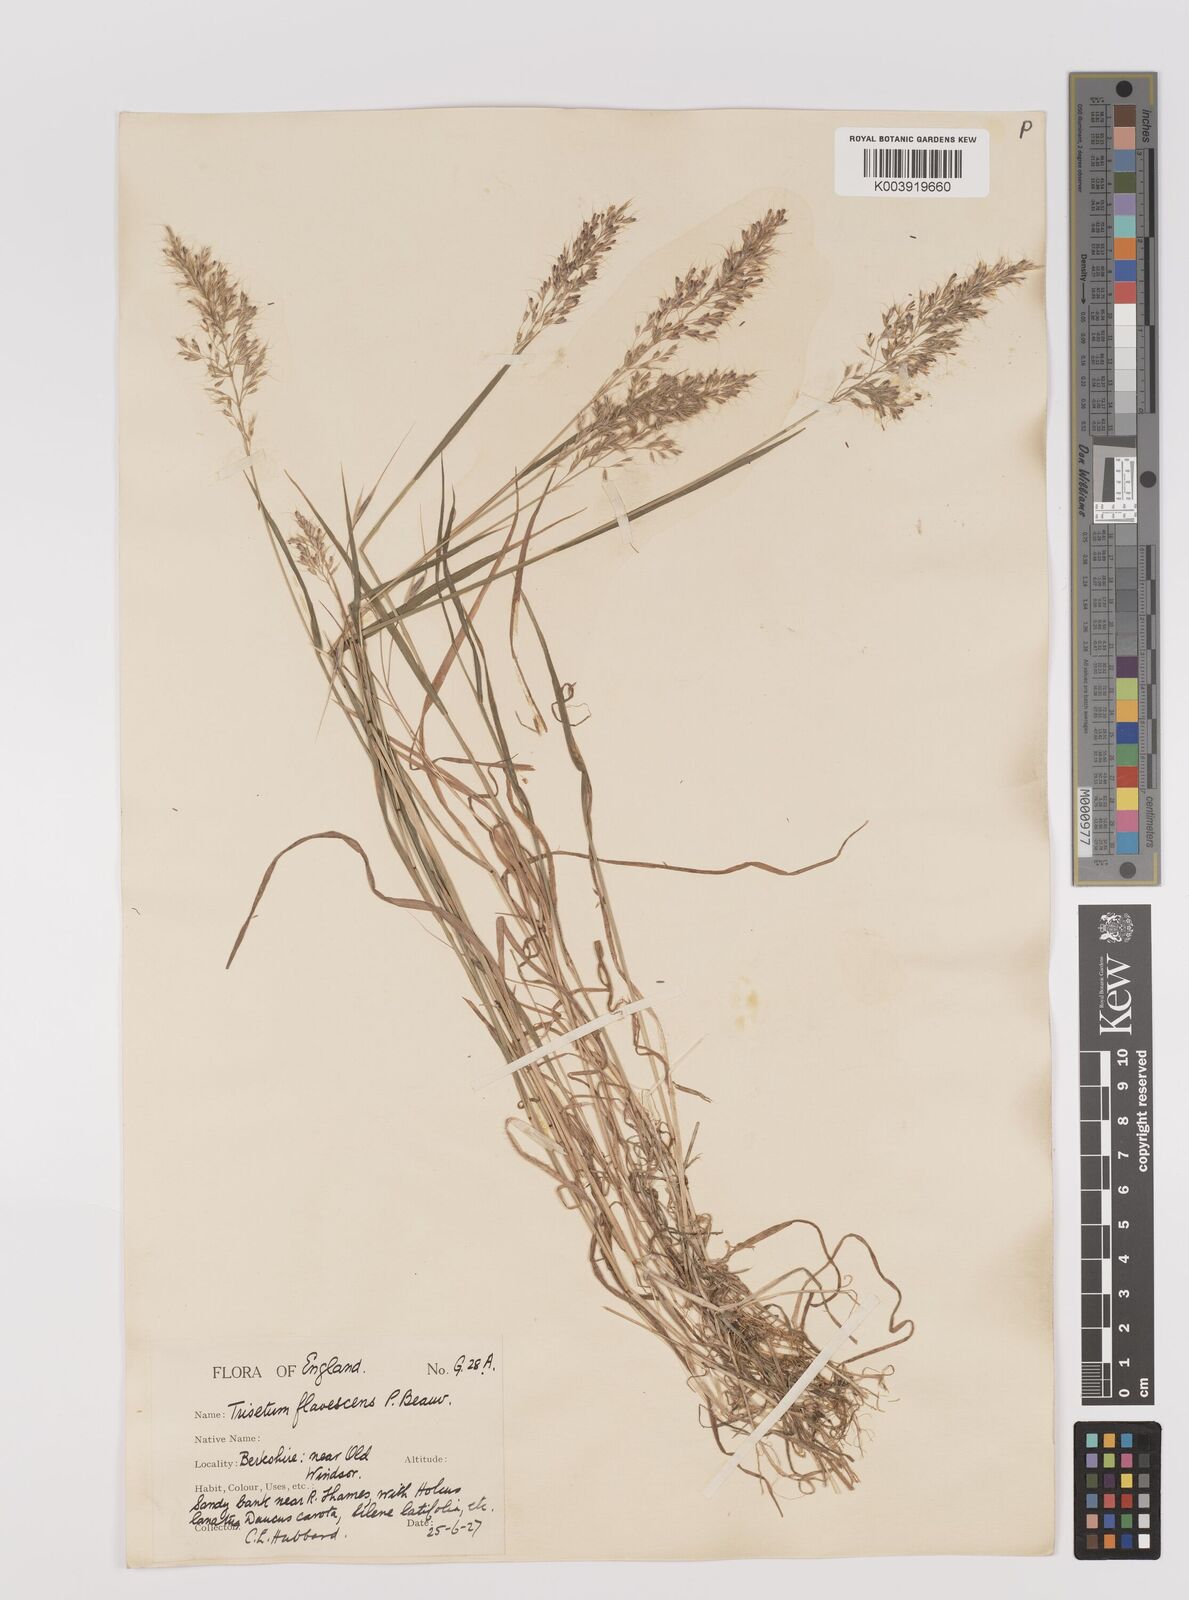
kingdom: Plantae
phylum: Tracheophyta
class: Liliopsida
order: Poales
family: Poaceae
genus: Trisetum
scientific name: Trisetum flavescens
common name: Yellow oat-grass
